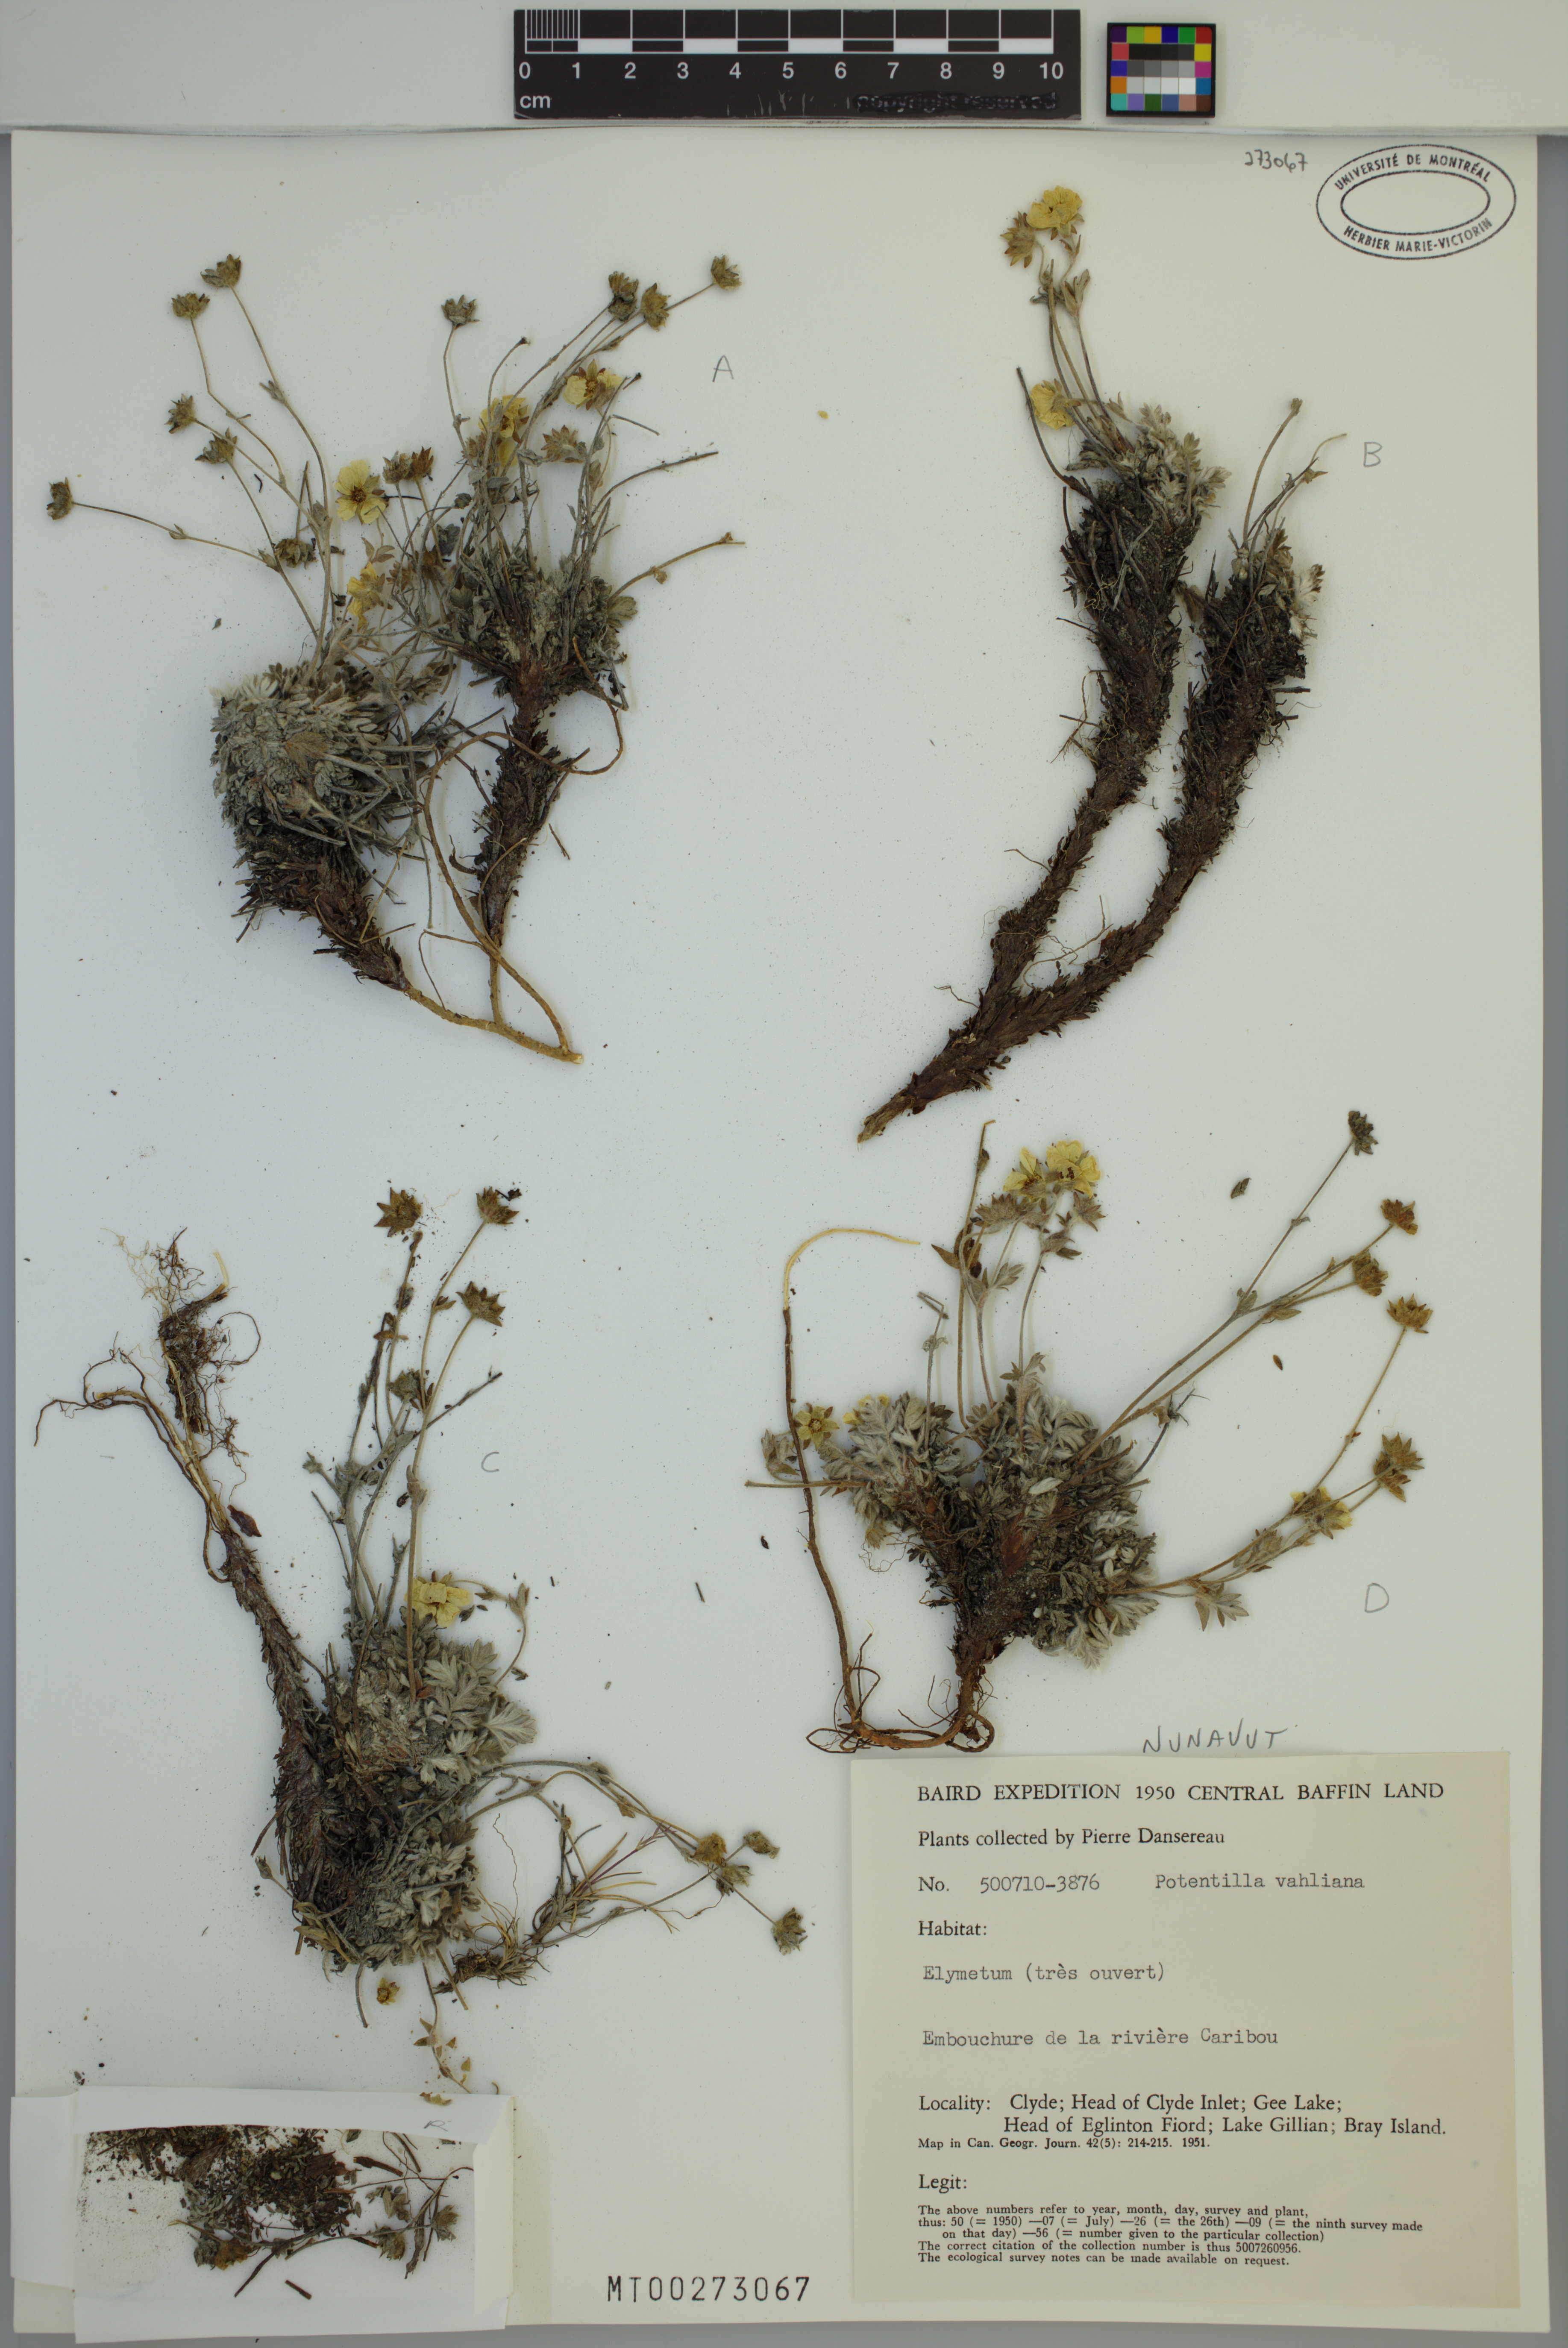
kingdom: Plantae
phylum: Tracheophyta
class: Magnoliopsida
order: Rosales
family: Rosaceae
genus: Potentilla
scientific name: Potentilla vahliana
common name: Vahl's cinquefoil
